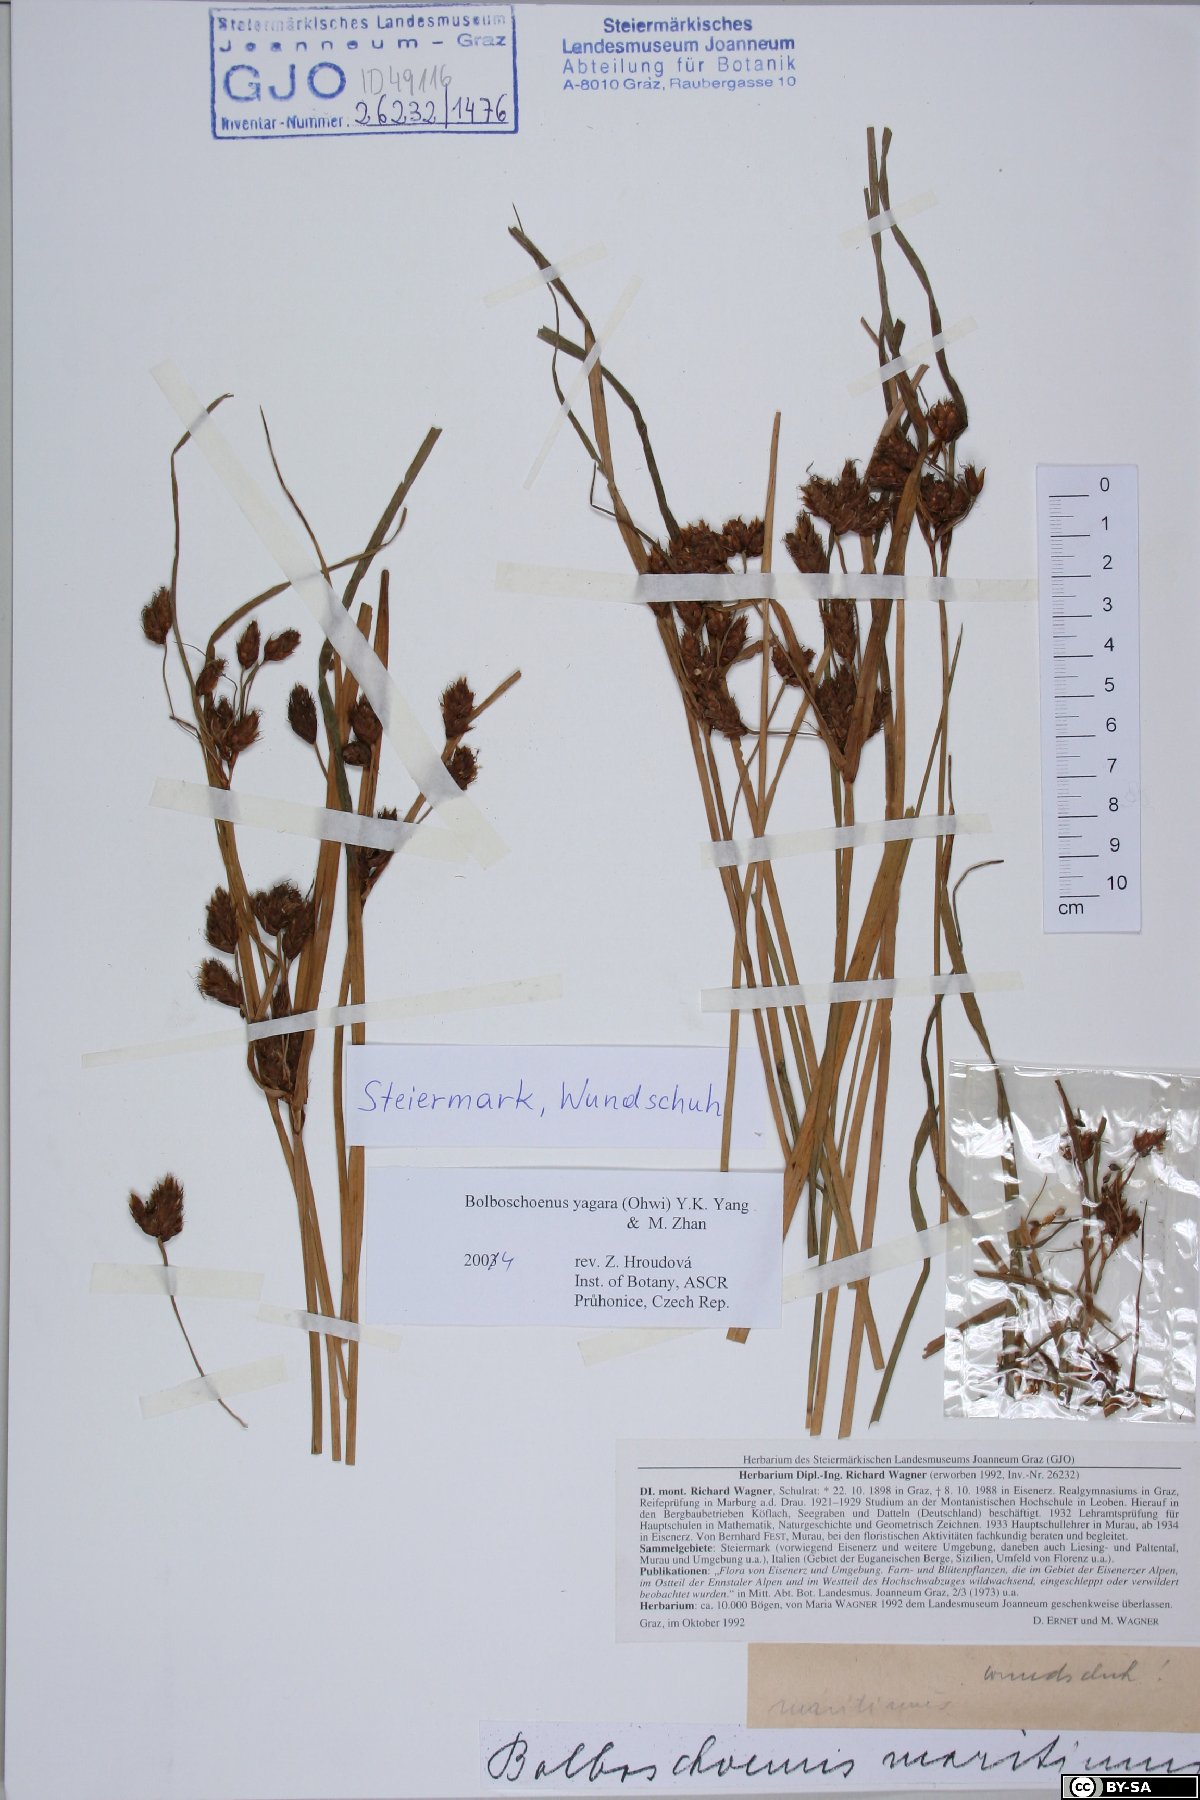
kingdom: Plantae
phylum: Tracheophyta
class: Liliopsida
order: Poales
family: Cyperaceae
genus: Bolboschoenus
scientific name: Bolboschoenus yagara
